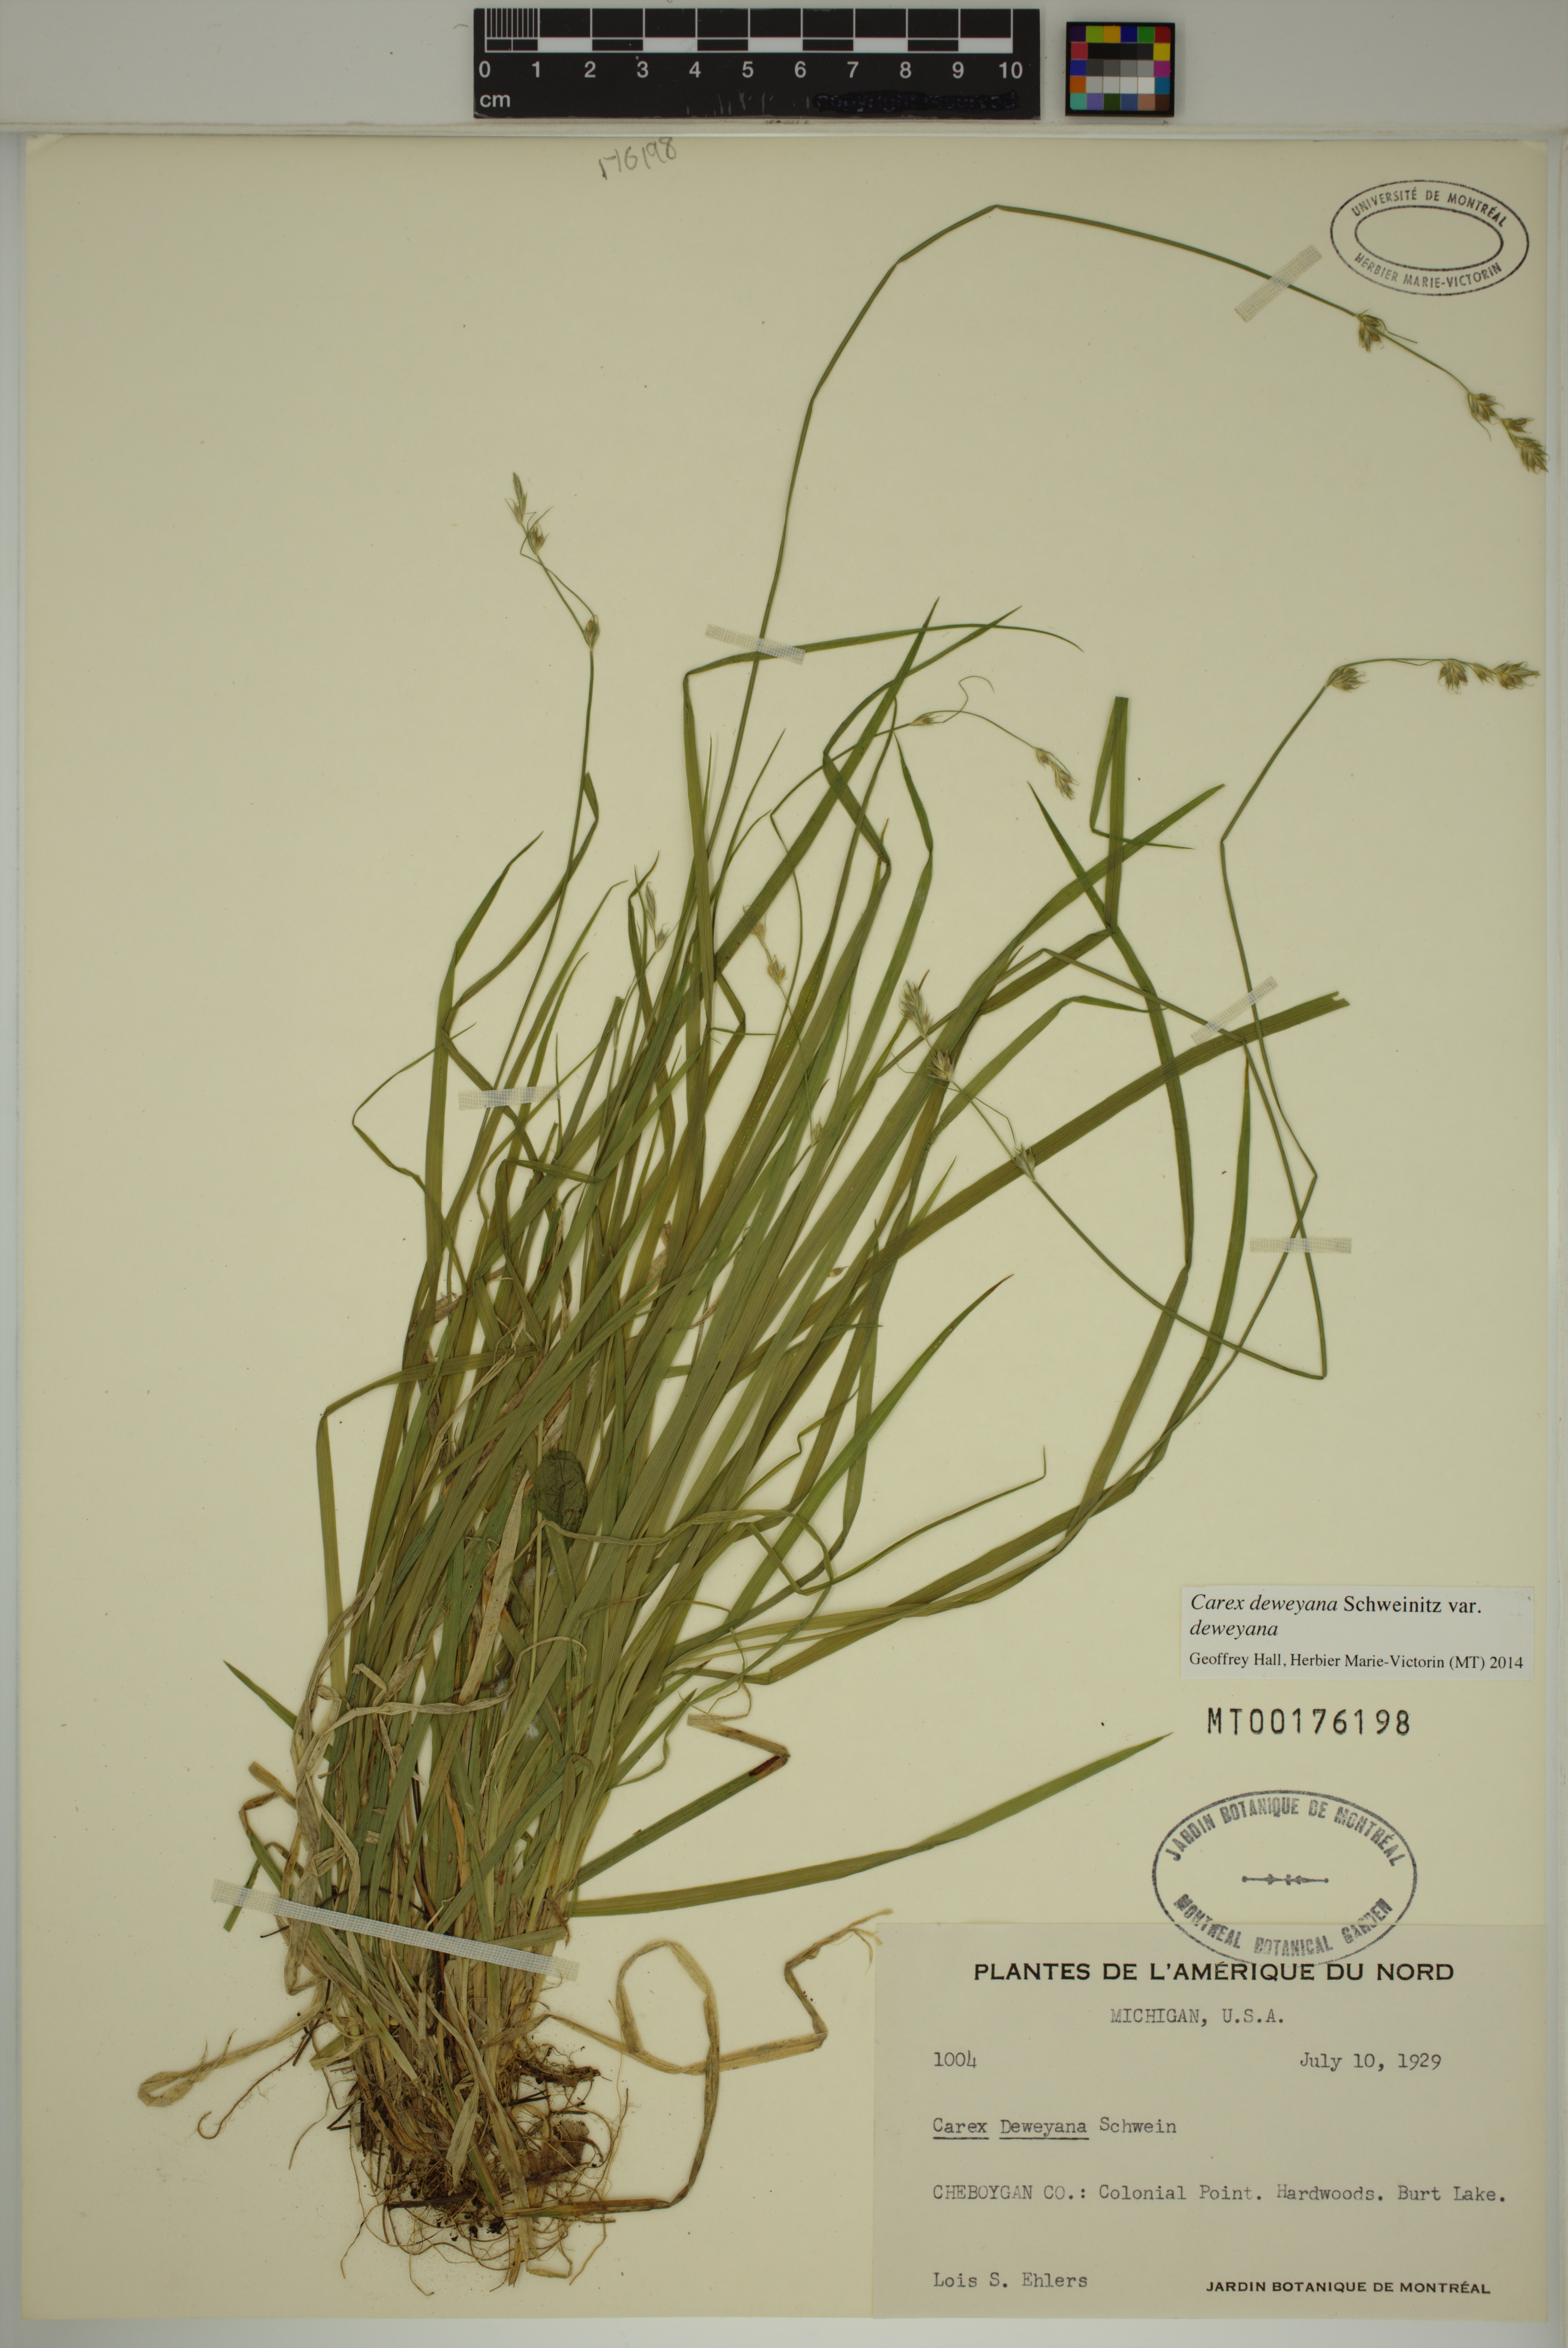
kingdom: Plantae
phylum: Tracheophyta
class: Liliopsida
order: Poales
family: Cyperaceae
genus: Carex
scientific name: Carex deweyana
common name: Dewey's sedge
